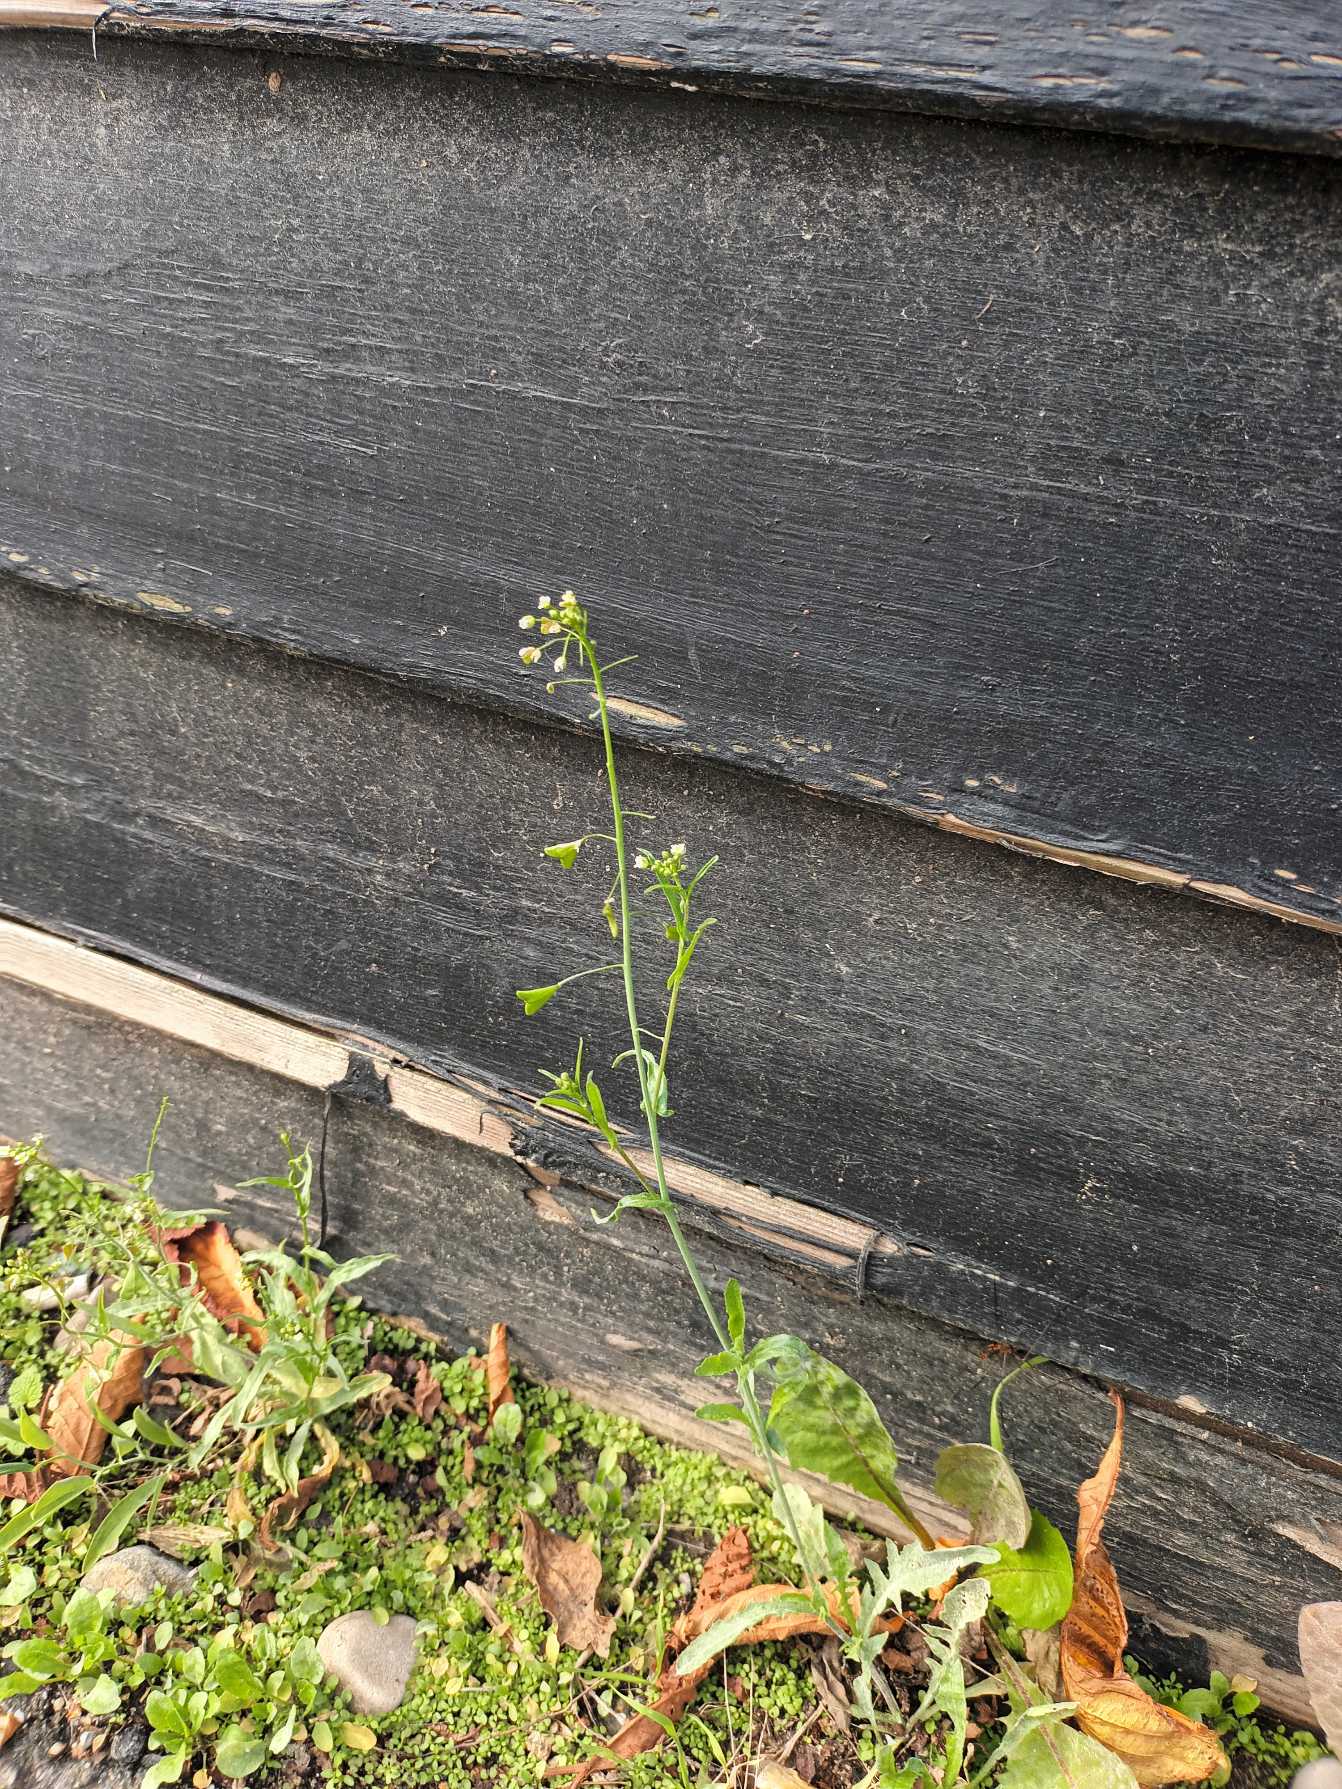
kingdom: Plantae
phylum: Tracheophyta
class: Magnoliopsida
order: Brassicales
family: Brassicaceae
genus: Capsella
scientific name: Capsella bursa-pastoris
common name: Hyrdetaske
